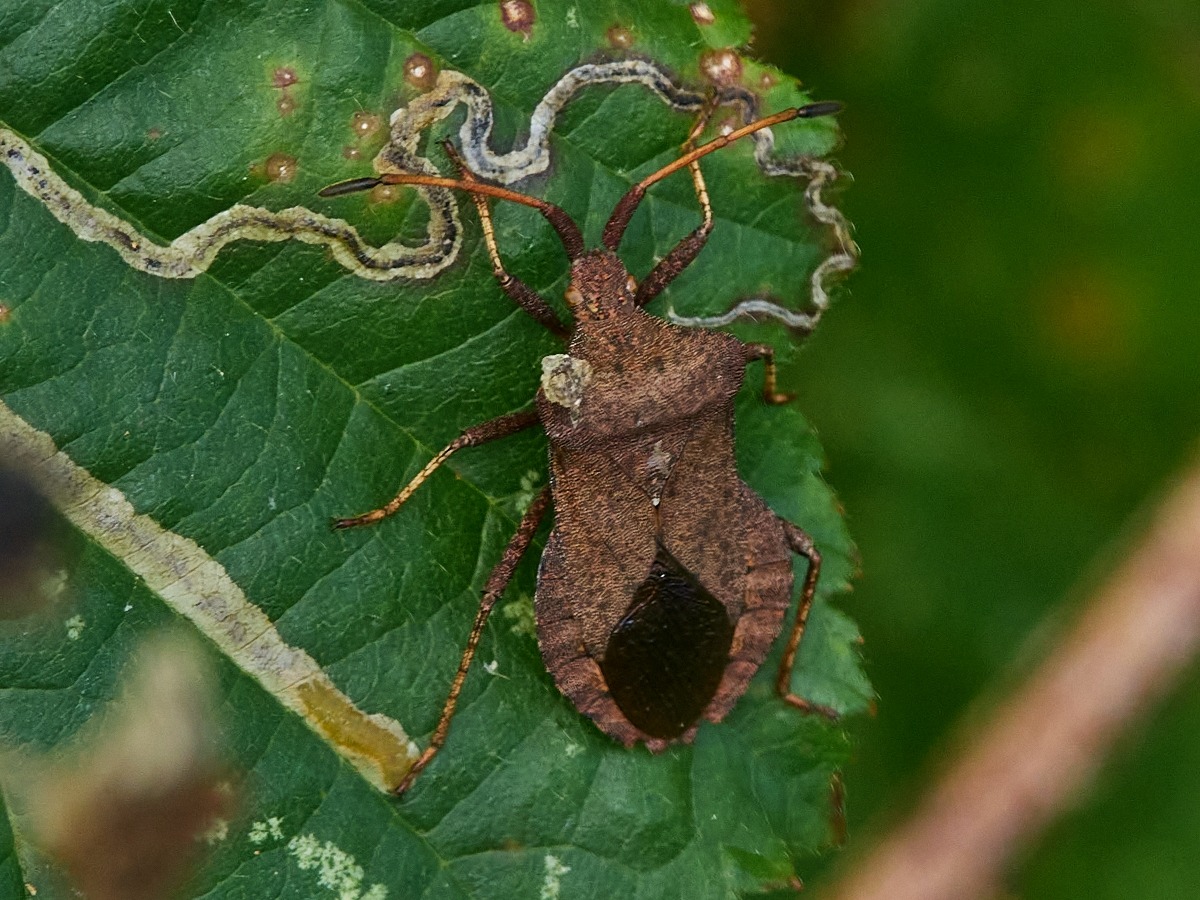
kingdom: Animalia
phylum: Arthropoda
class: Insecta
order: Hemiptera
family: Coreidae
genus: Coreus
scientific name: Coreus marginatus
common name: Skræppetæge
